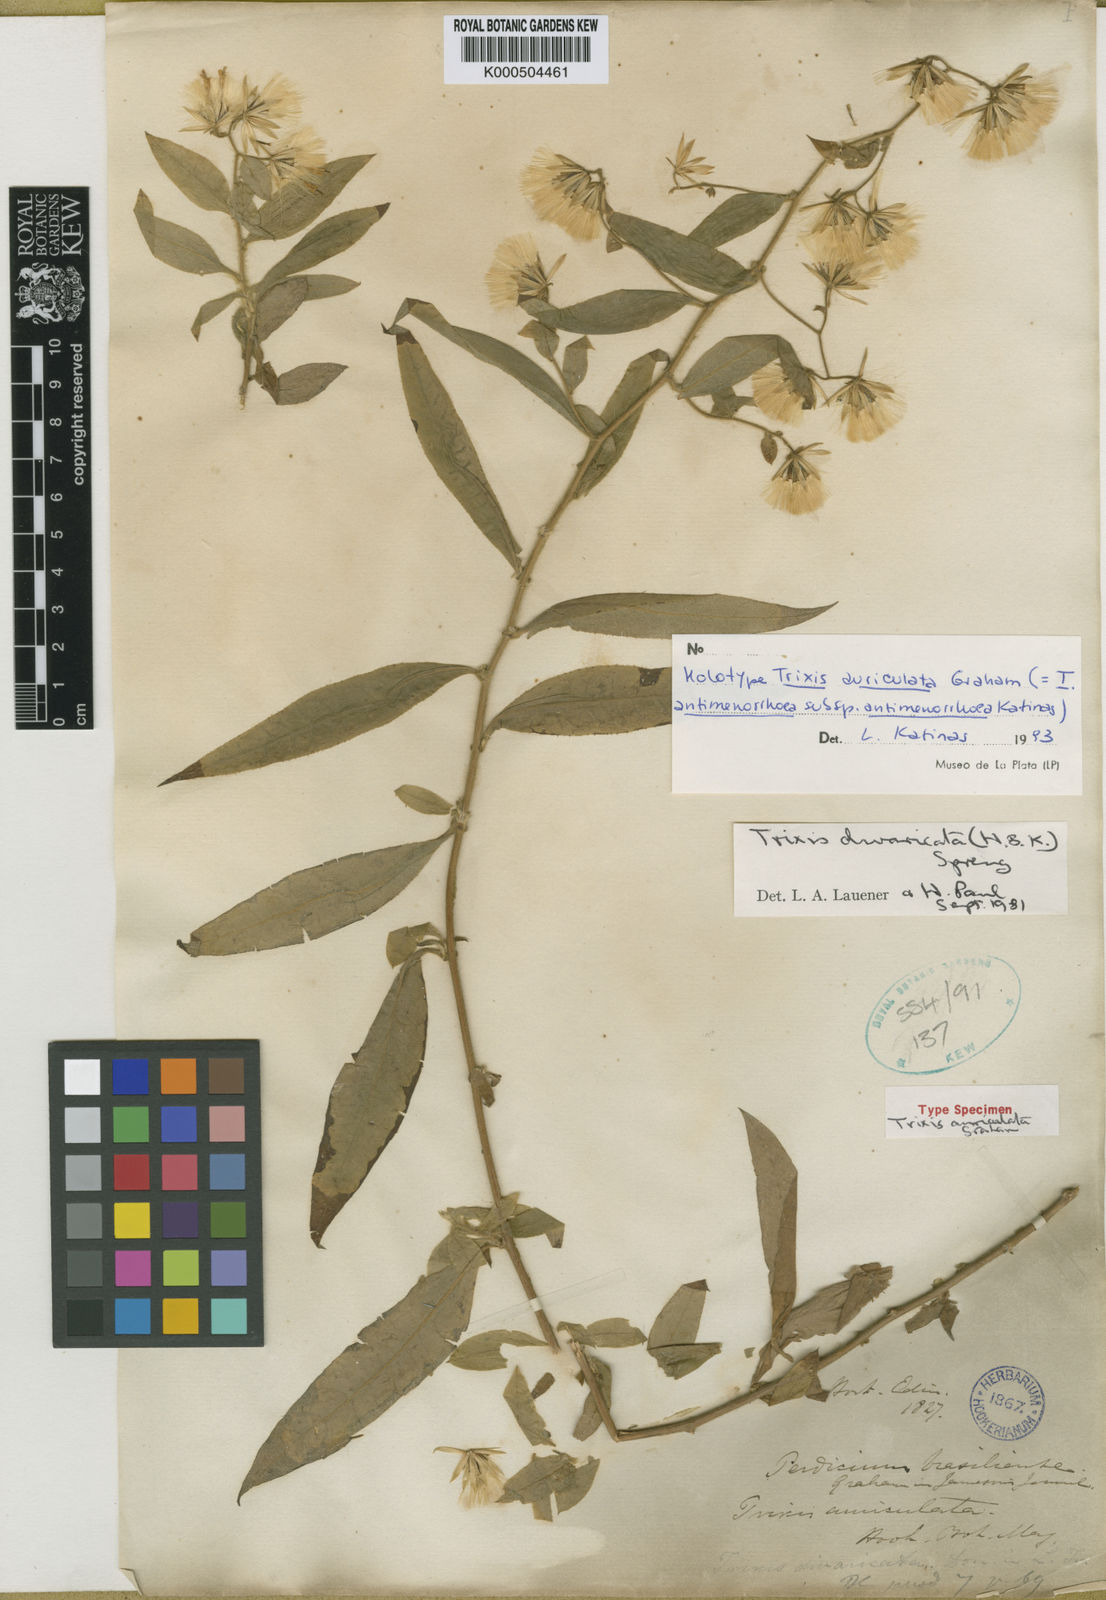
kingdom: Plantae
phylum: Tracheophyta
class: Magnoliopsida
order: Asterales
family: Asteraceae
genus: Trixis
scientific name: Trixis divaricata
